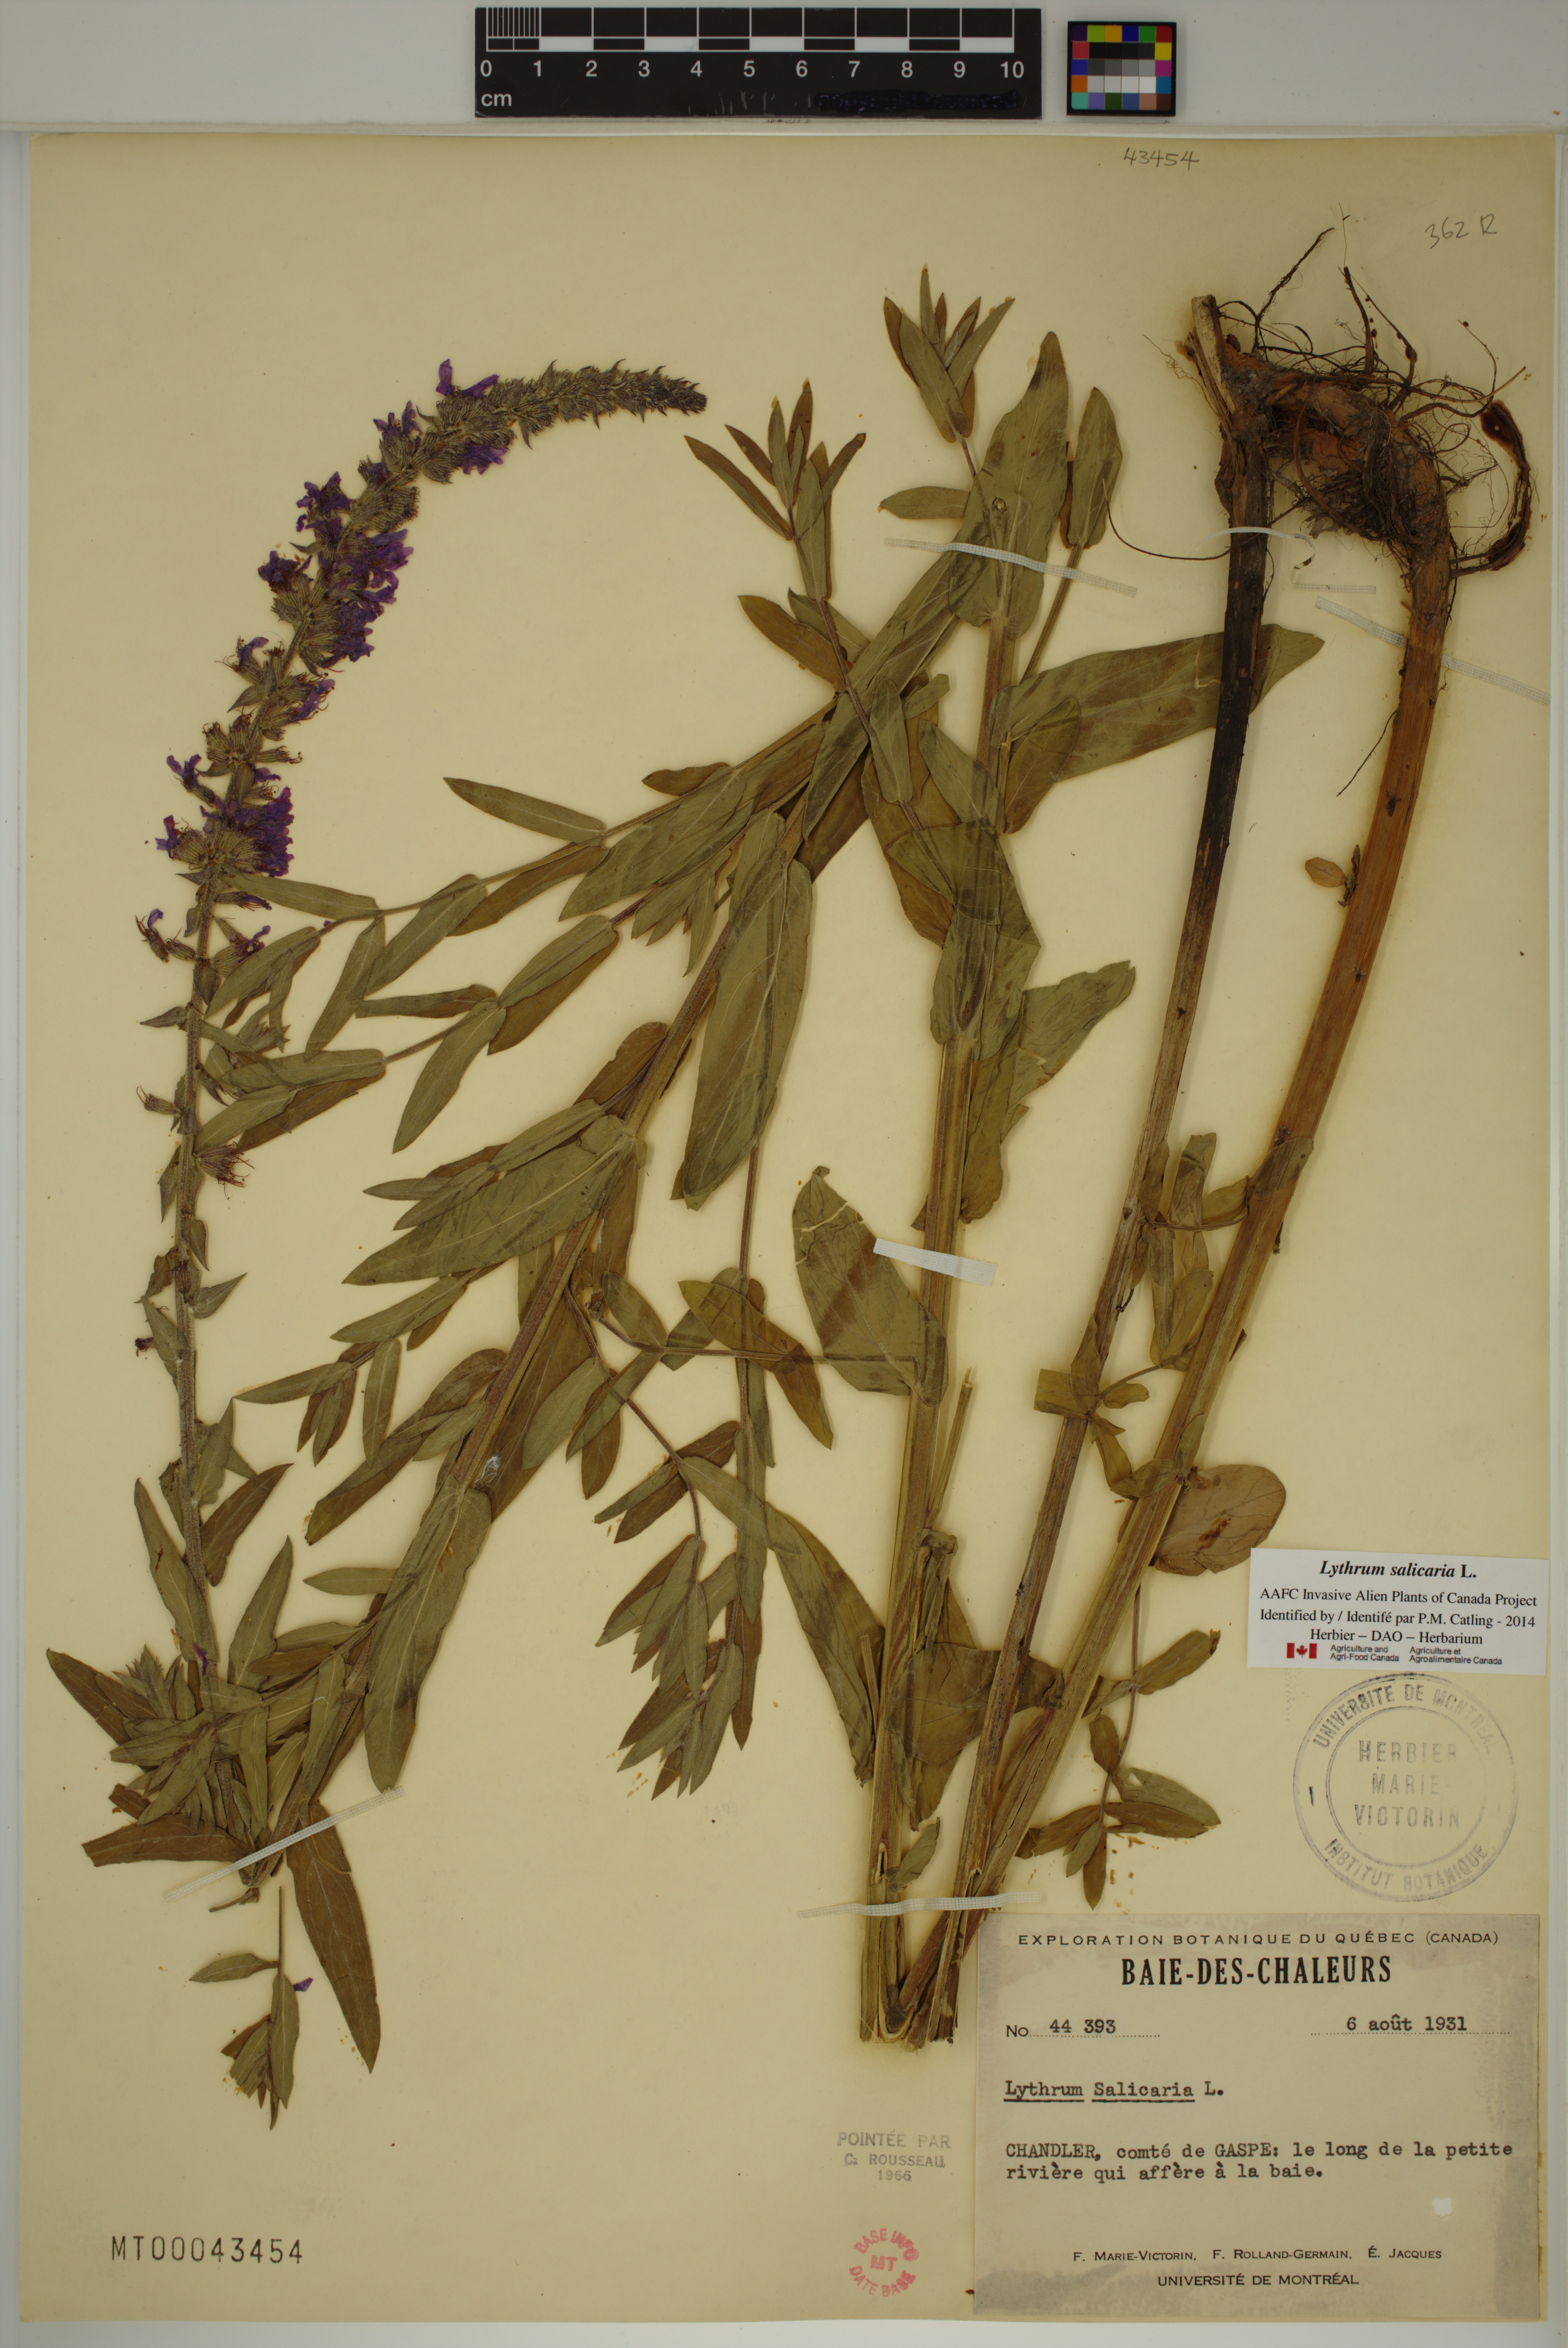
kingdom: Plantae
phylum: Tracheophyta
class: Magnoliopsida
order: Myrtales
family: Lythraceae
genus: Lythrum
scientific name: Lythrum salicaria
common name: Purple loosestrife
